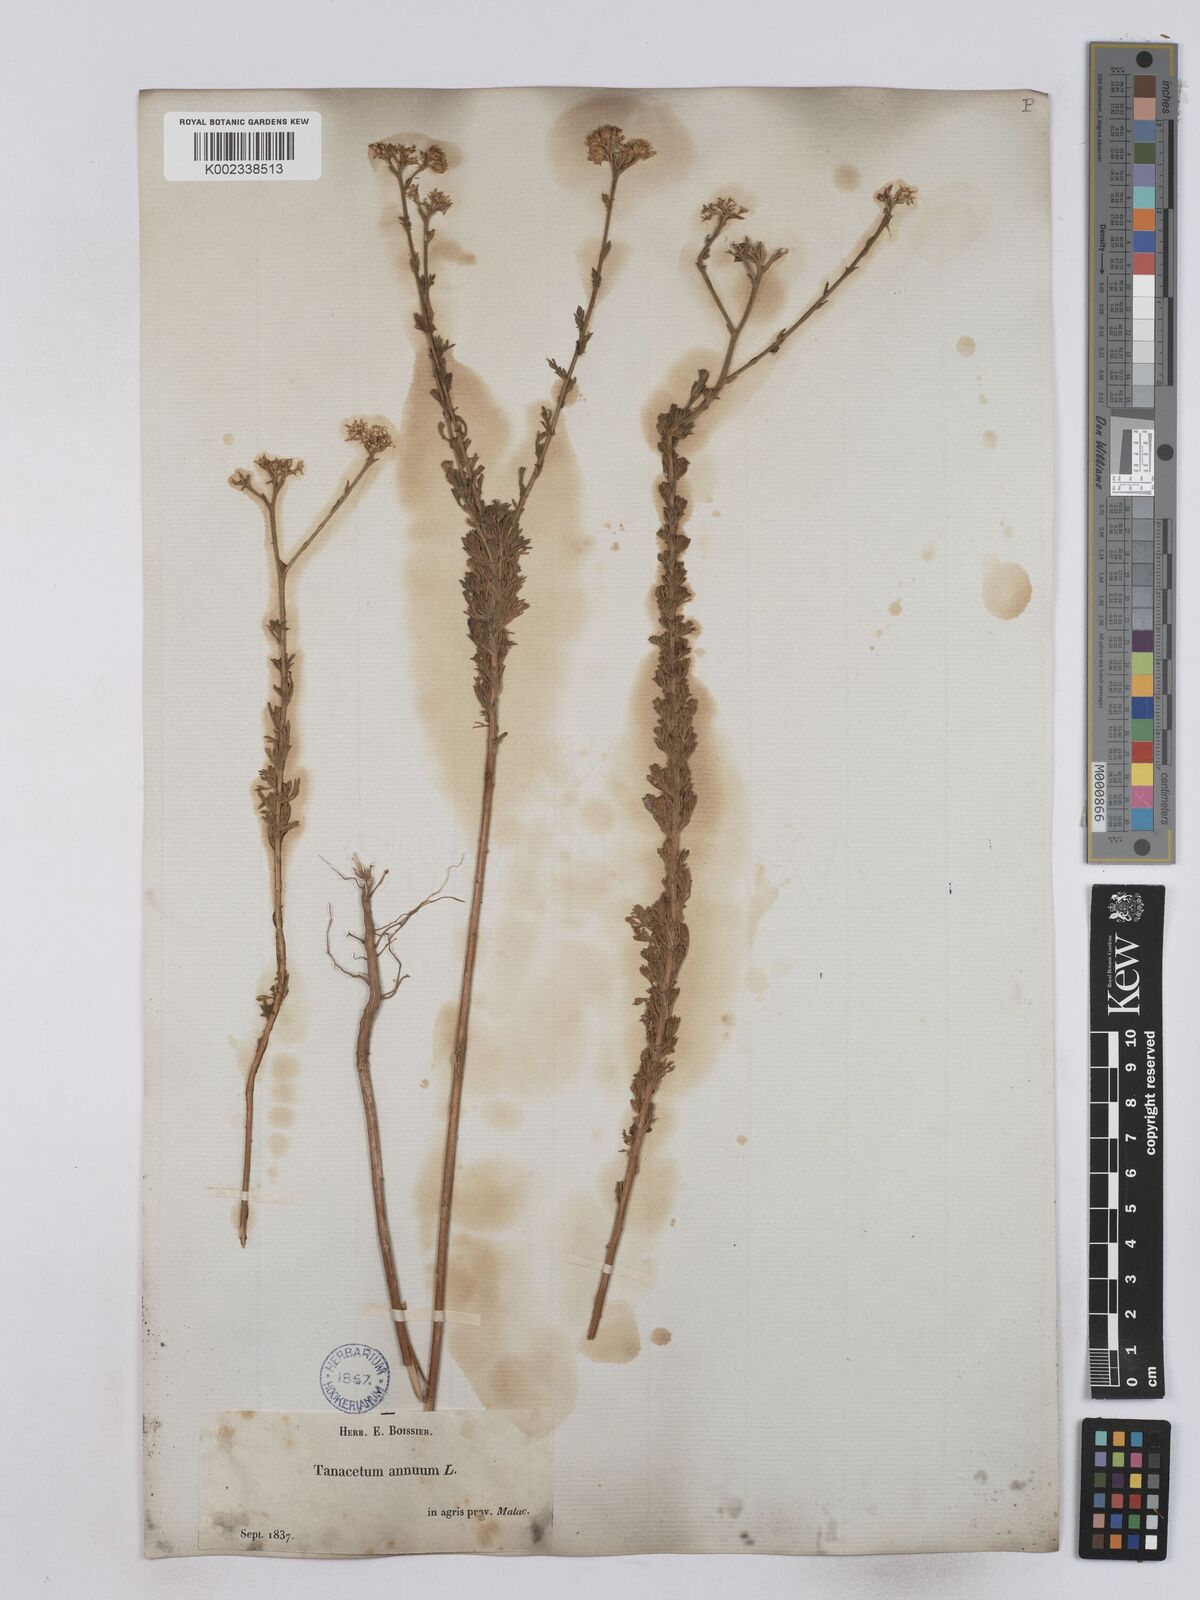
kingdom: Plantae
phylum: Tracheophyta
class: Magnoliopsida
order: Asterales
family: Asteraceae
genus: Vogtia
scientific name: Vogtia annua
